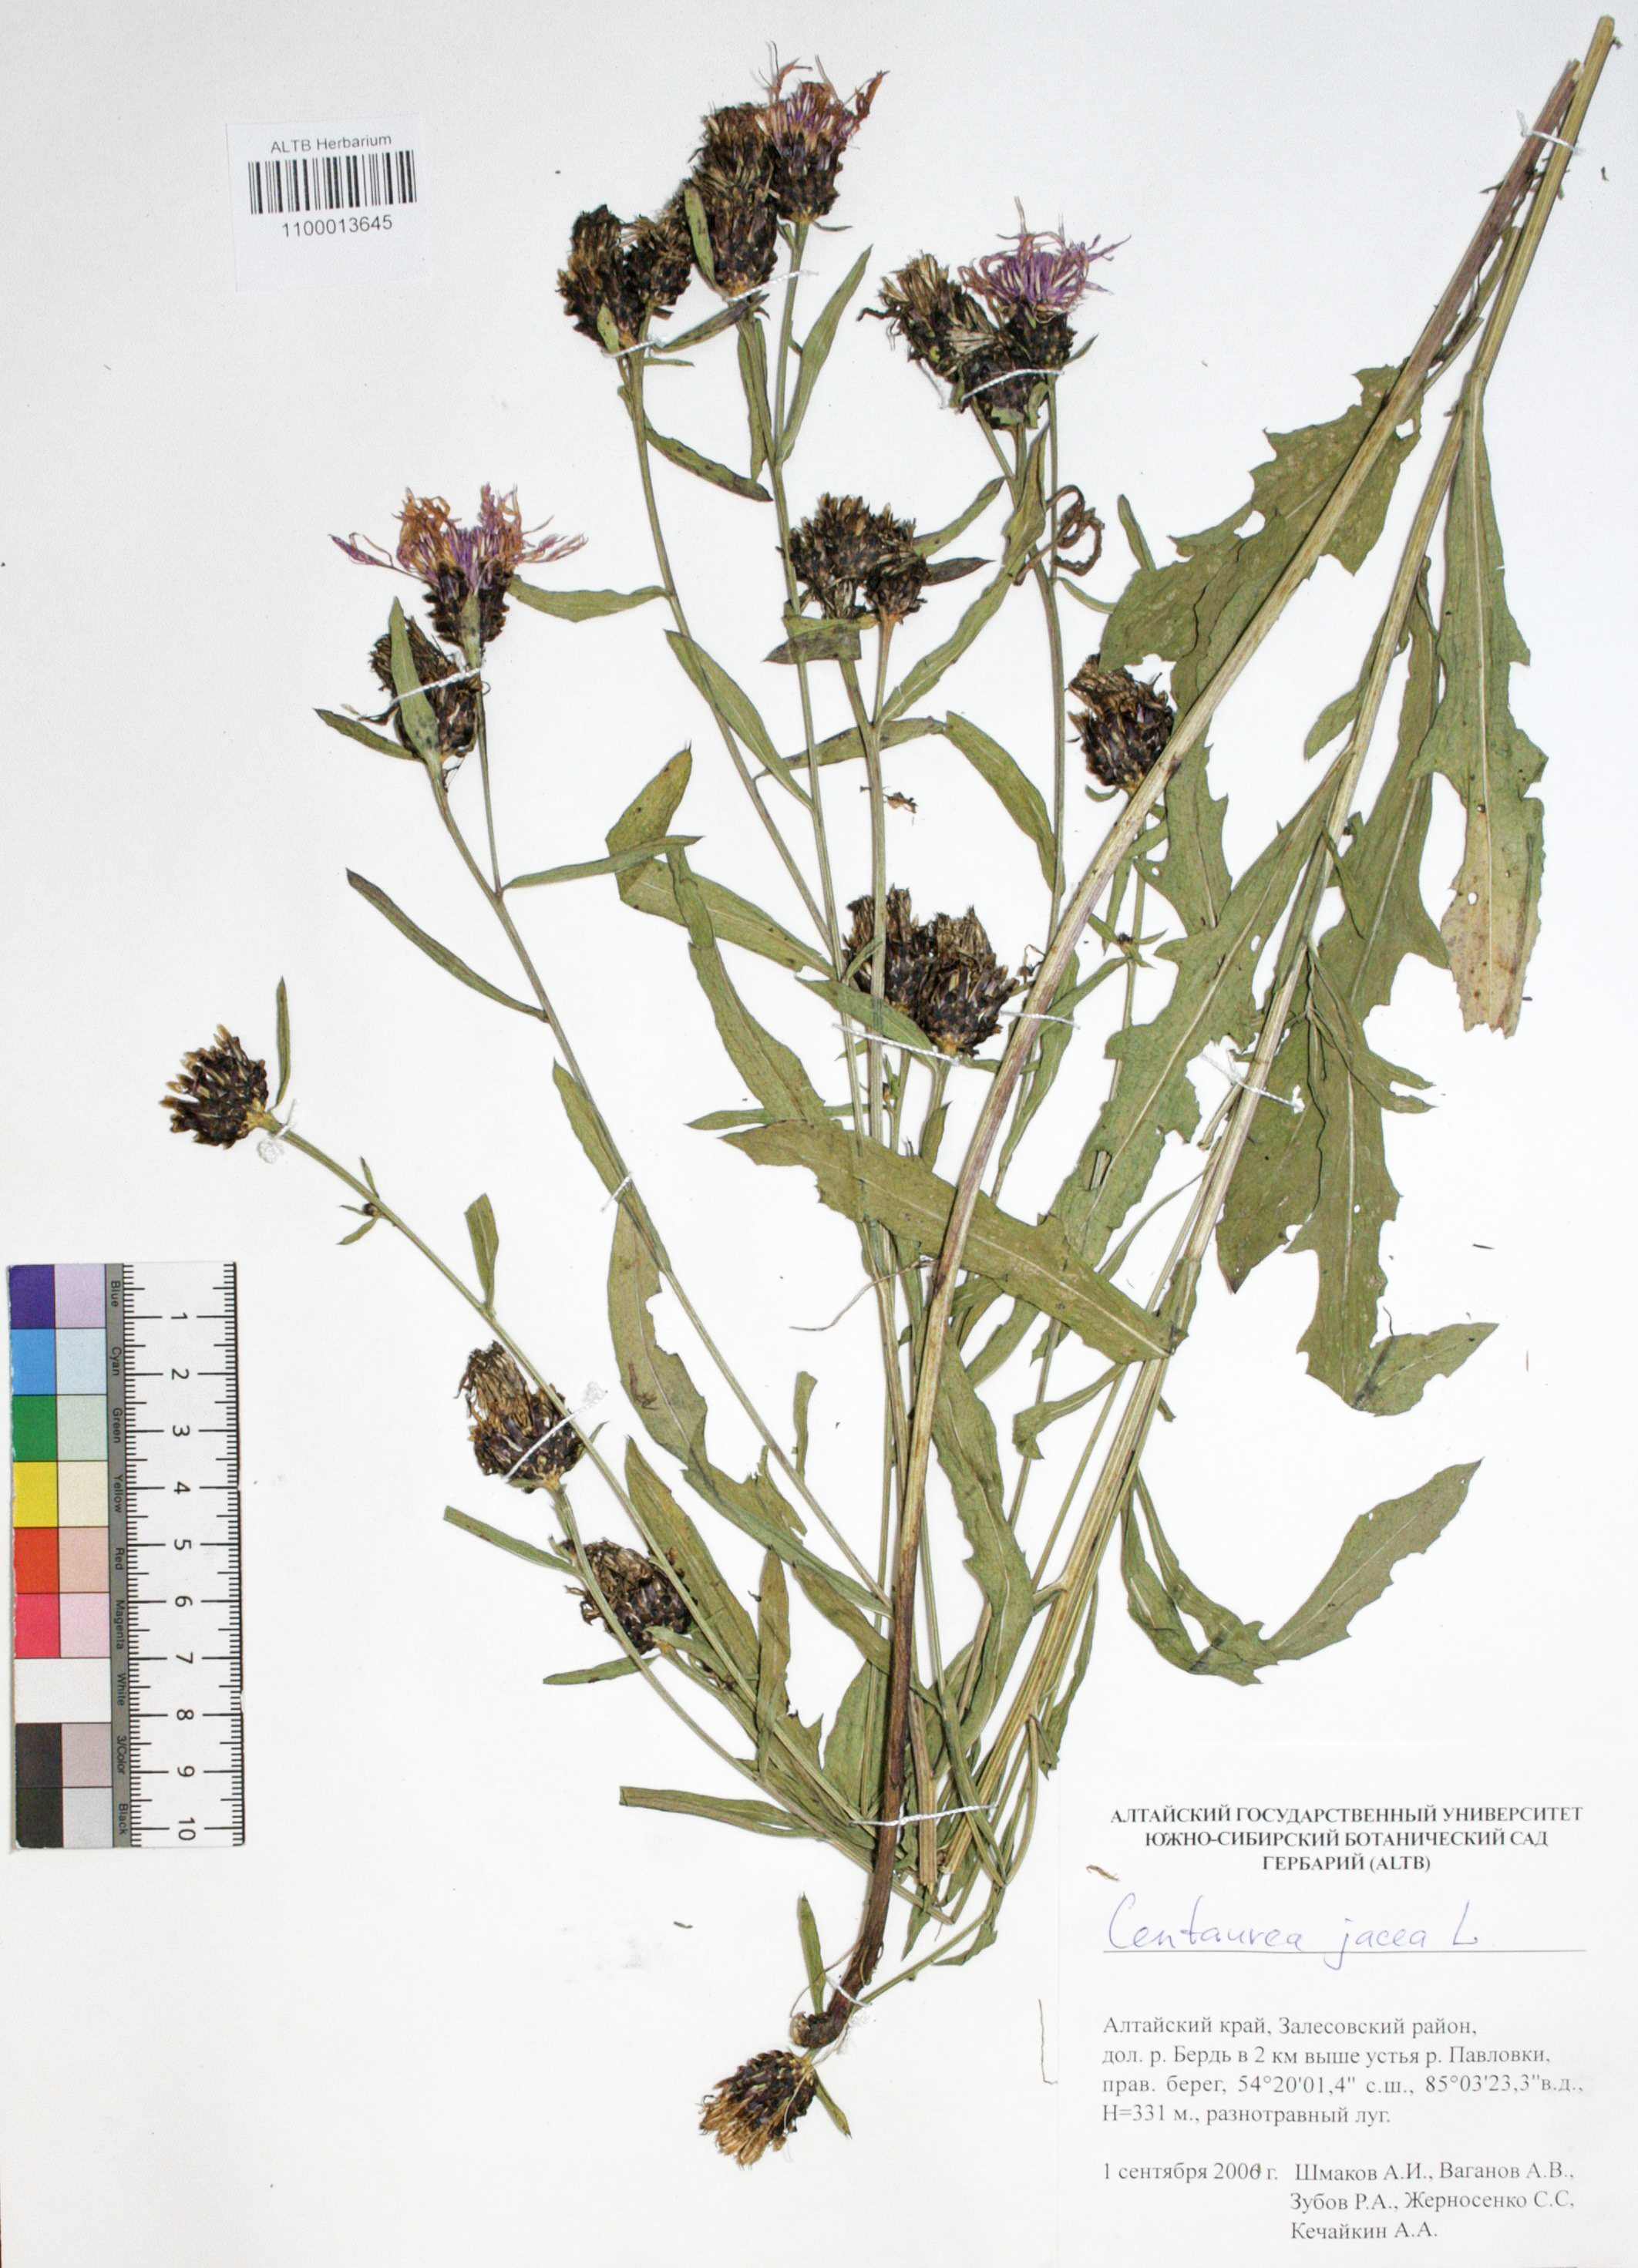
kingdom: Plantae
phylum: Tracheophyta
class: Magnoliopsida
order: Asterales
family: Asteraceae
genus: Centaurea
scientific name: Centaurea jacea
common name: Brown knapweed
